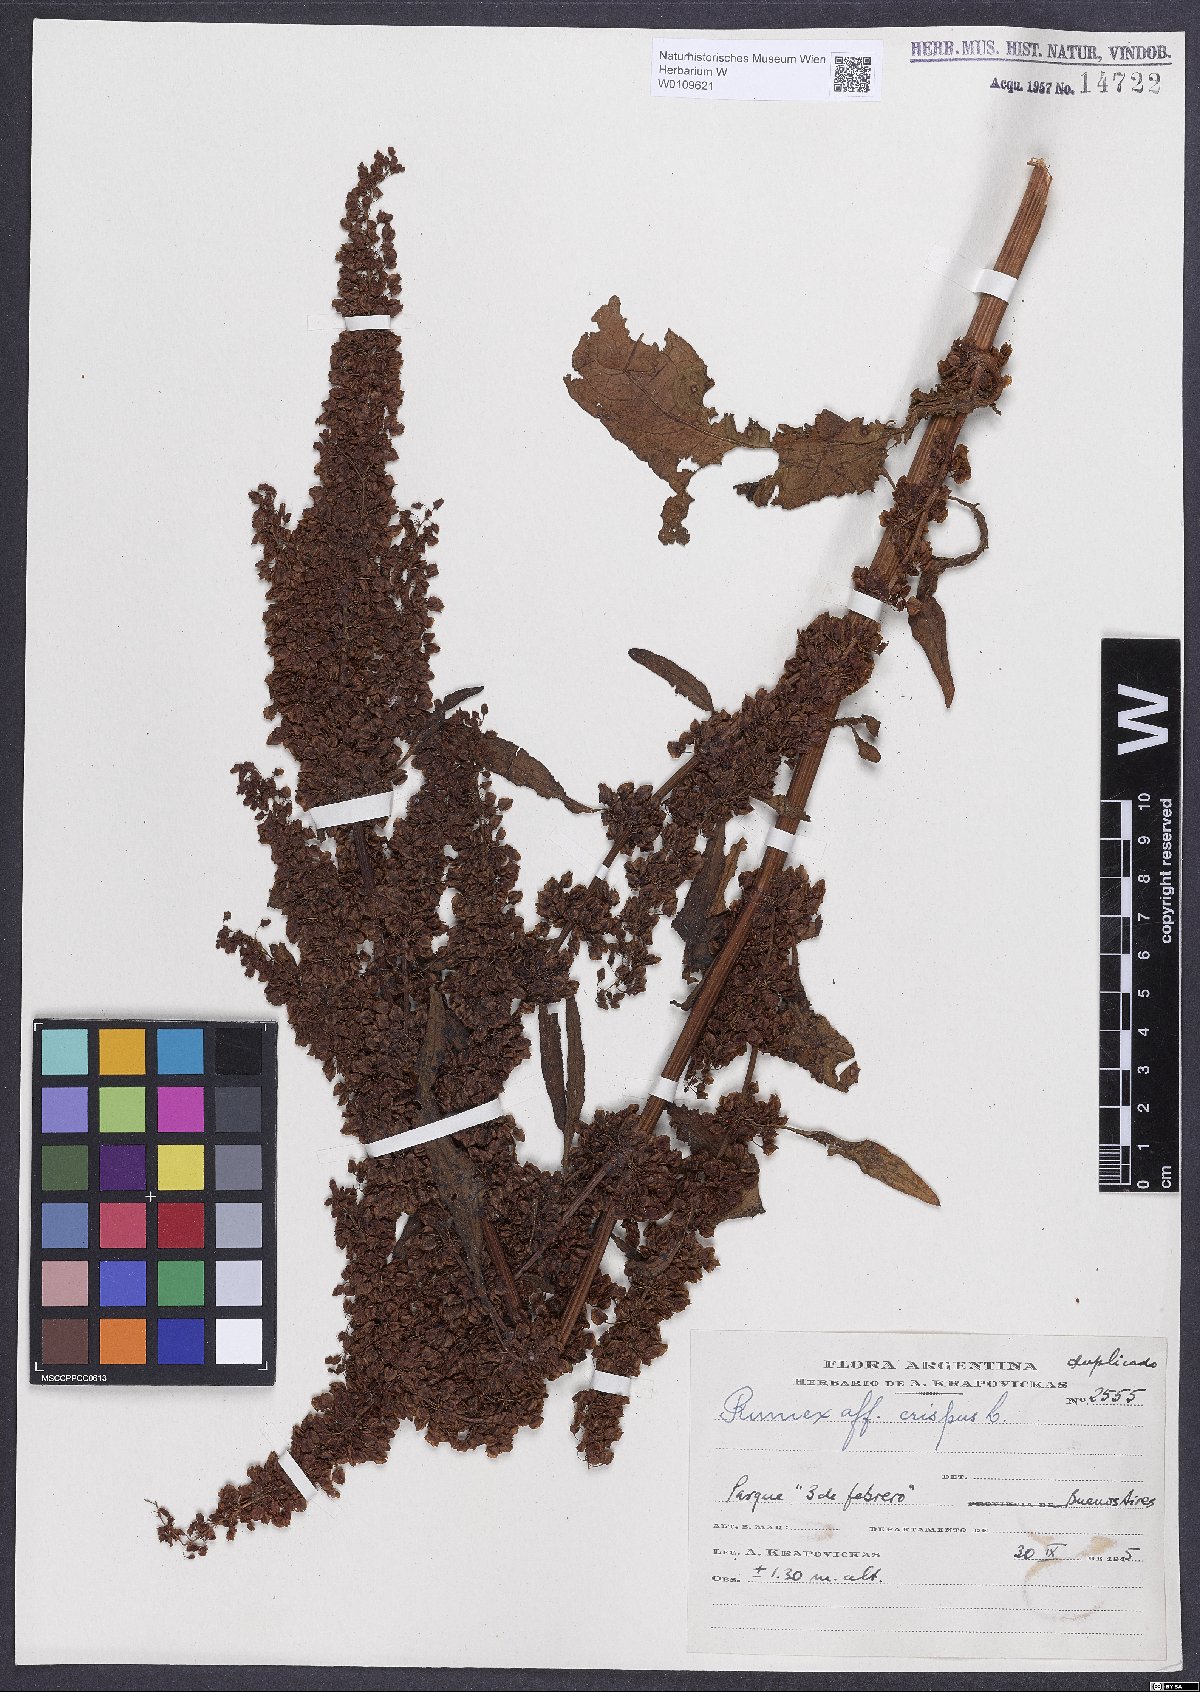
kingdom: Plantae
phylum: Tracheophyta
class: Magnoliopsida
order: Caryophyllales
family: Polygonaceae
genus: Rumex
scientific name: Rumex crispus
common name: Curled dock
